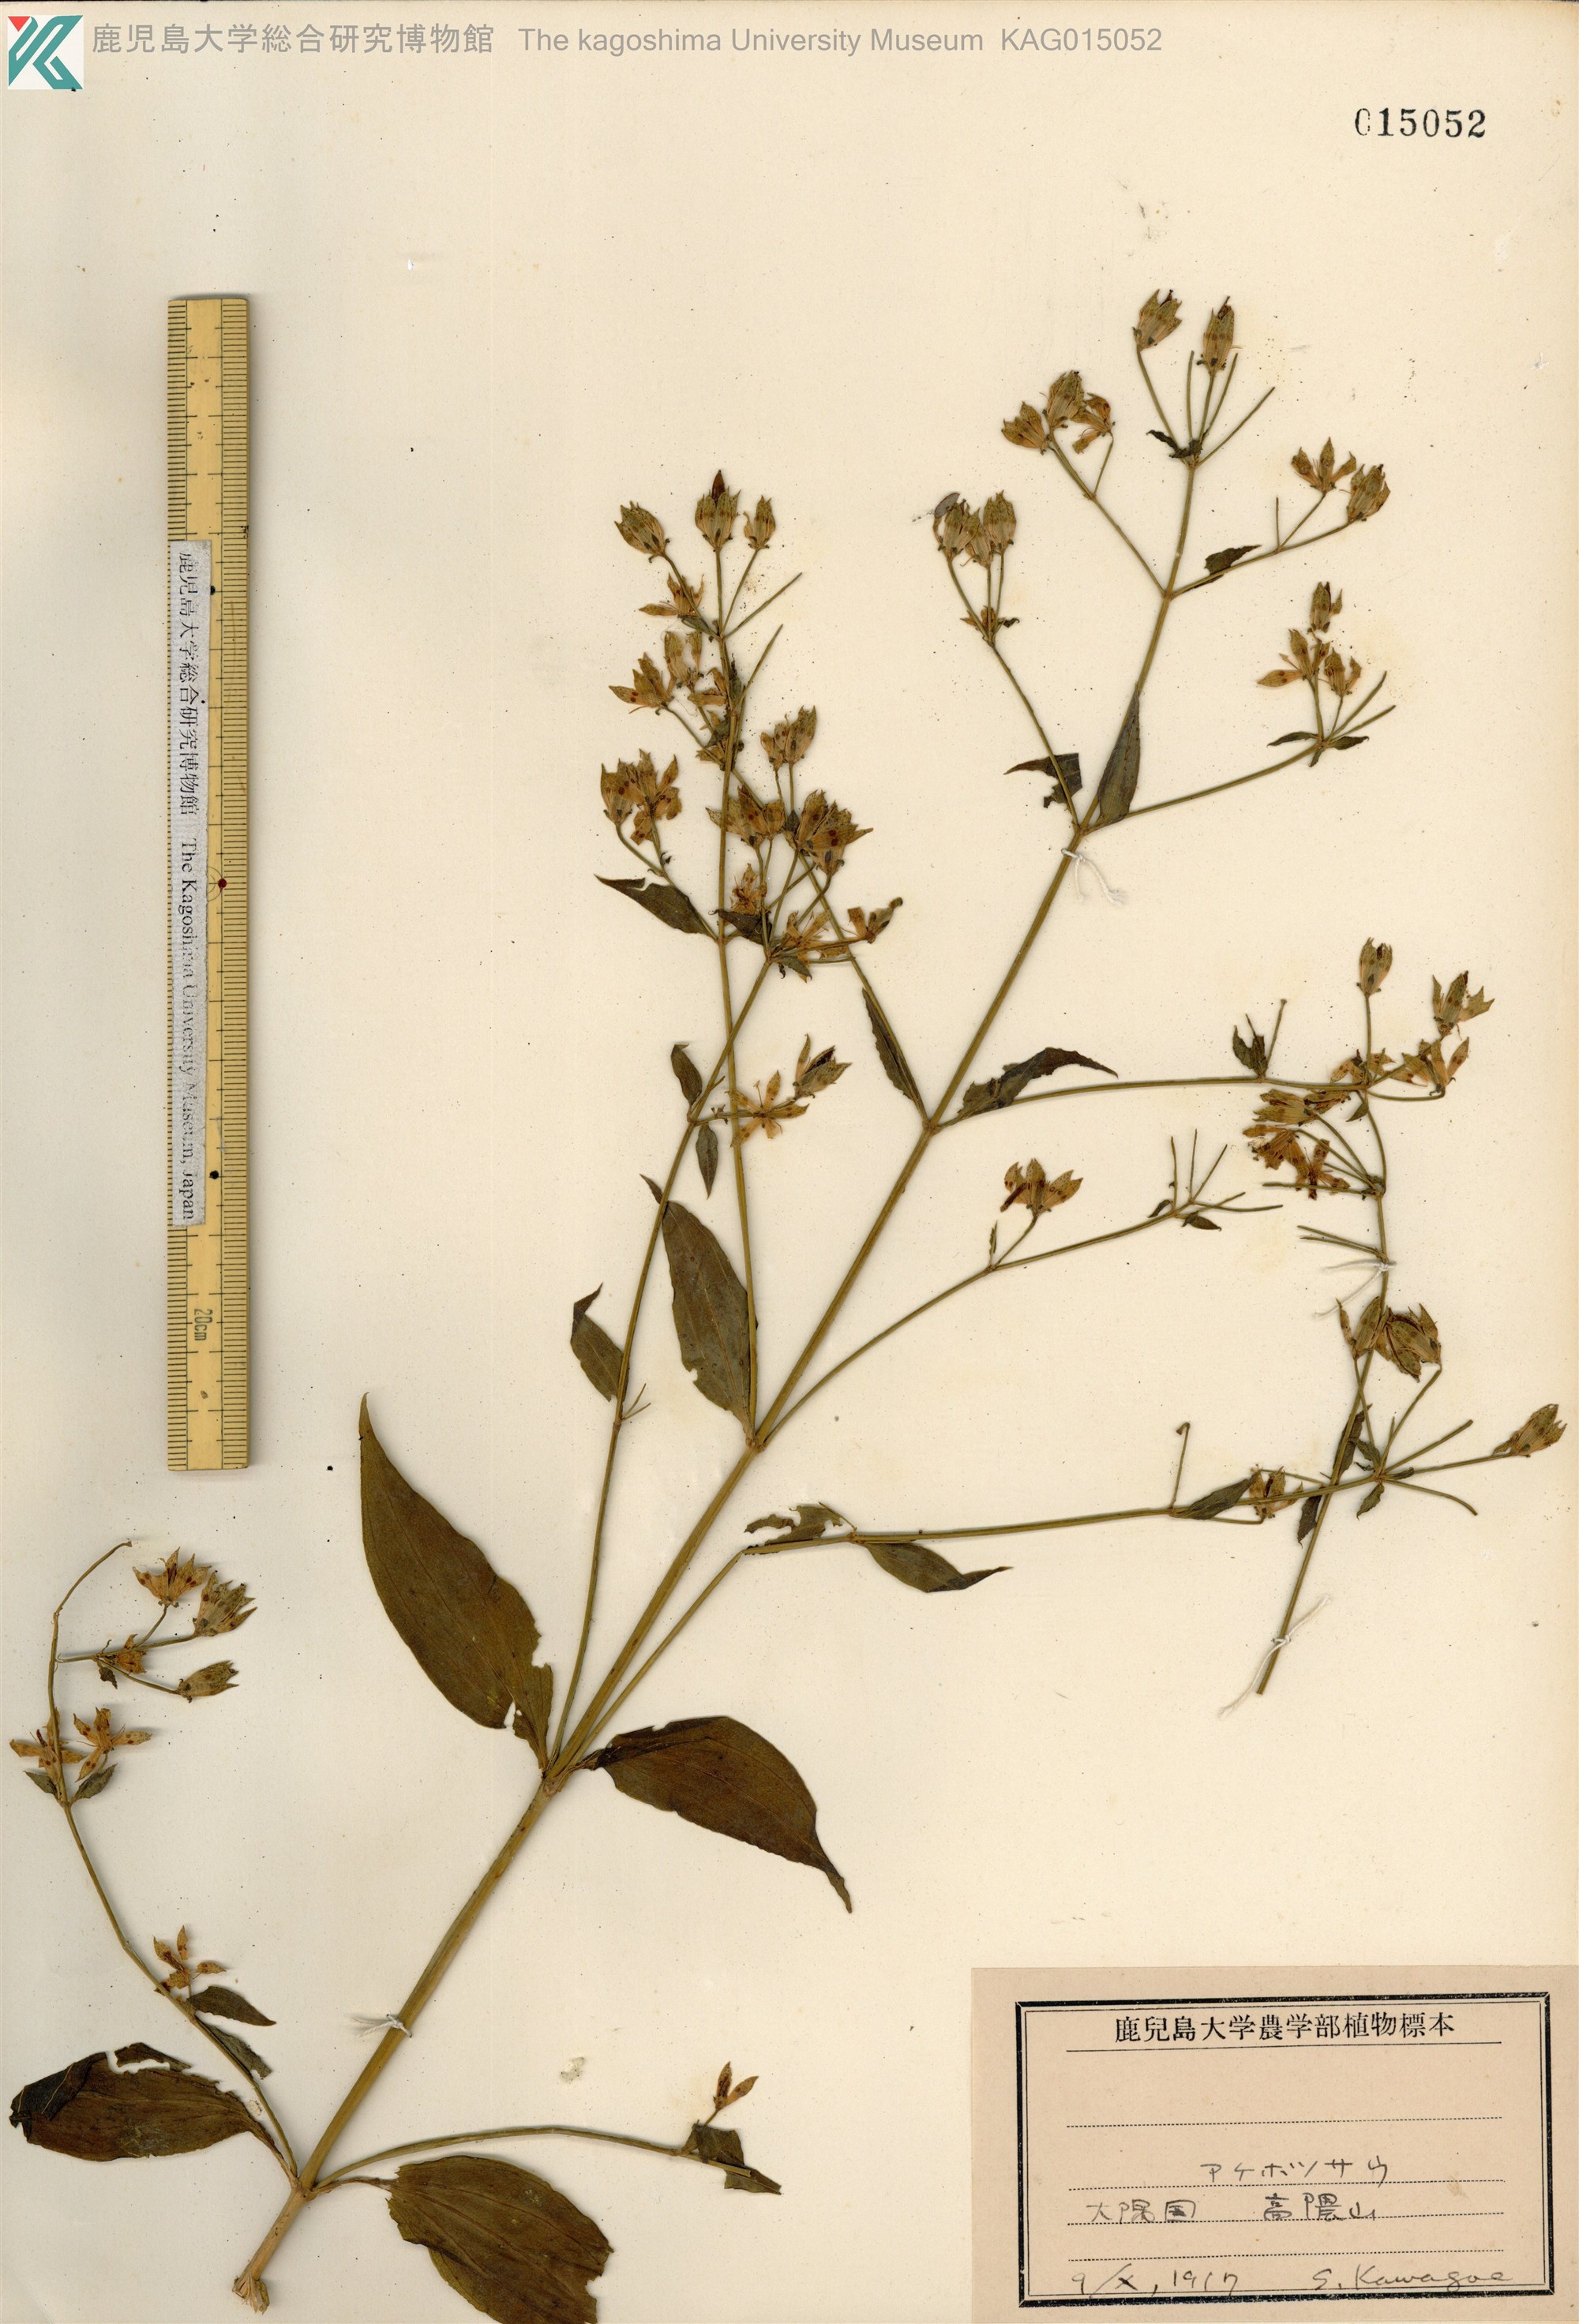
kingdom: Plantae
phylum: Tracheophyta
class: Magnoliopsida
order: Gentianales
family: Gentianaceae
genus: Swertia
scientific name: Swertia bimaculata
